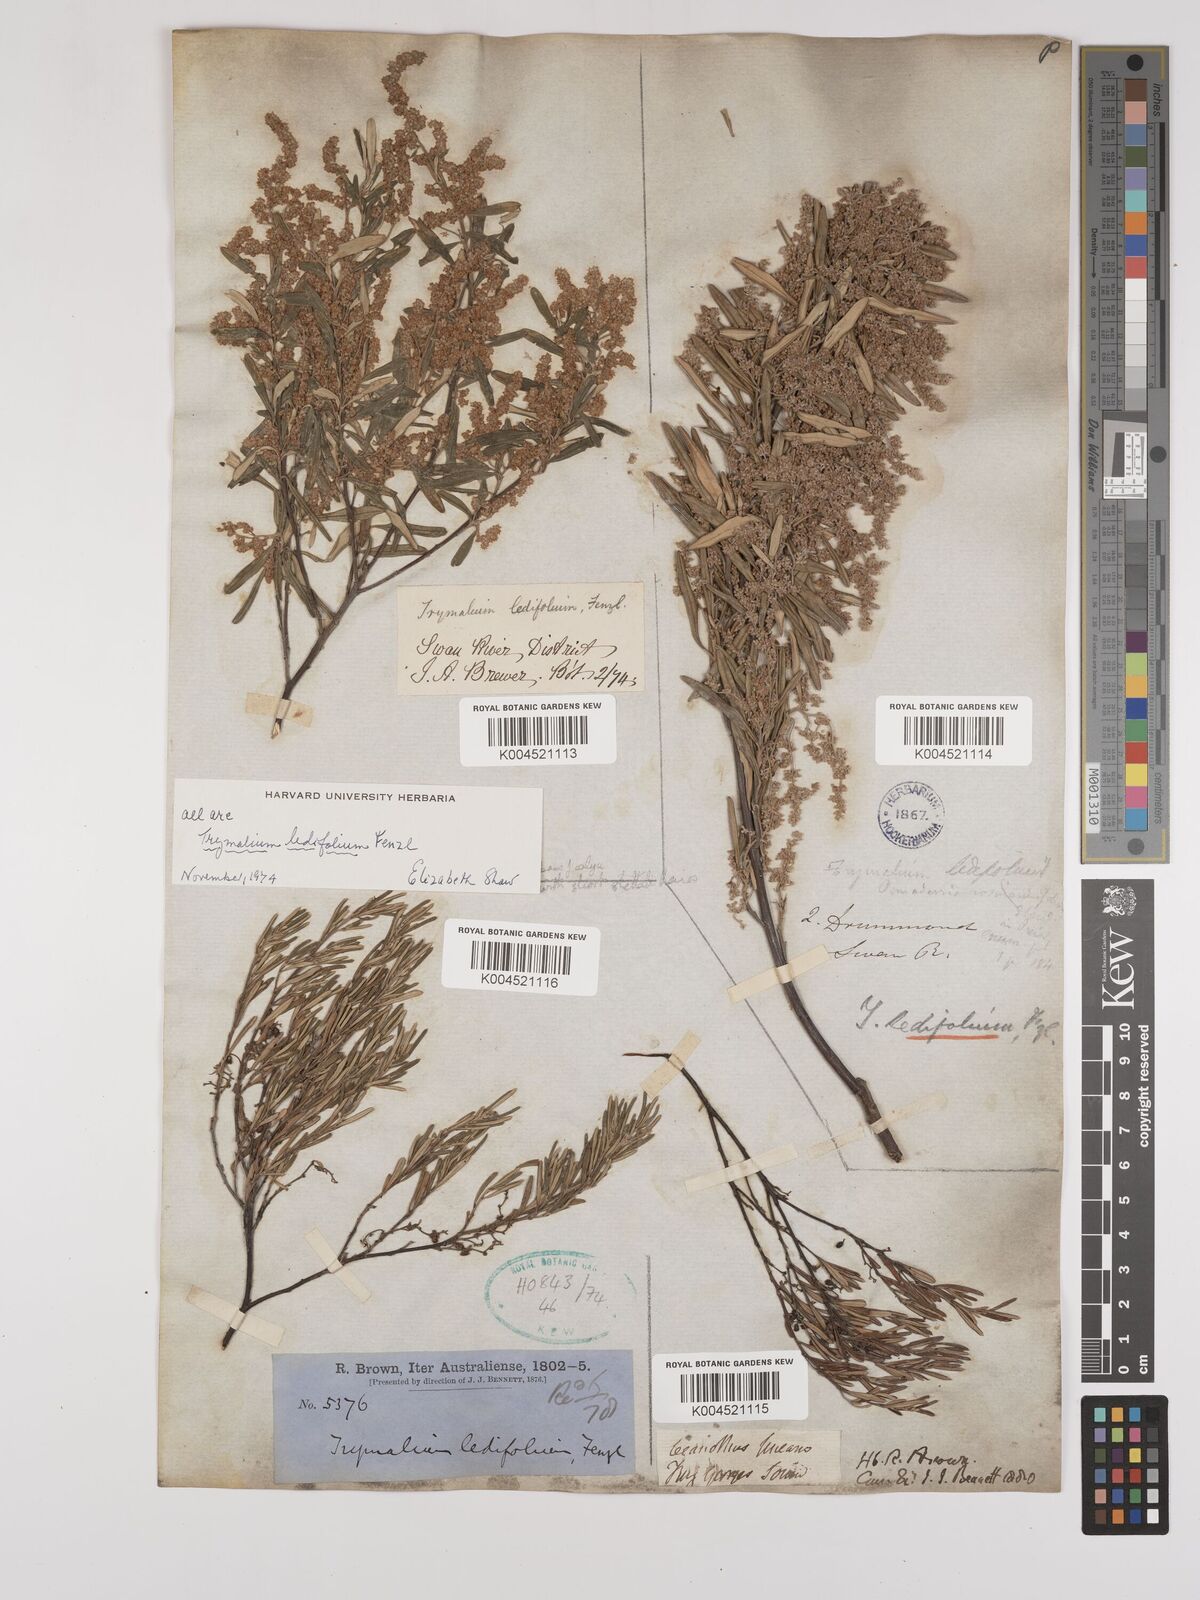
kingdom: Plantae
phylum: Tracheophyta
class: Magnoliopsida
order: Rosales
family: Rhamnaceae
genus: Trymalium
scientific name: Trymalium ledifolium
